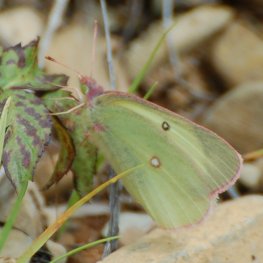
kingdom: Animalia
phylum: Arthropoda
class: Insecta
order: Lepidoptera
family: Pieridae
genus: Colias
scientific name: Colias interior
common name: Pink-edged Sulphur
